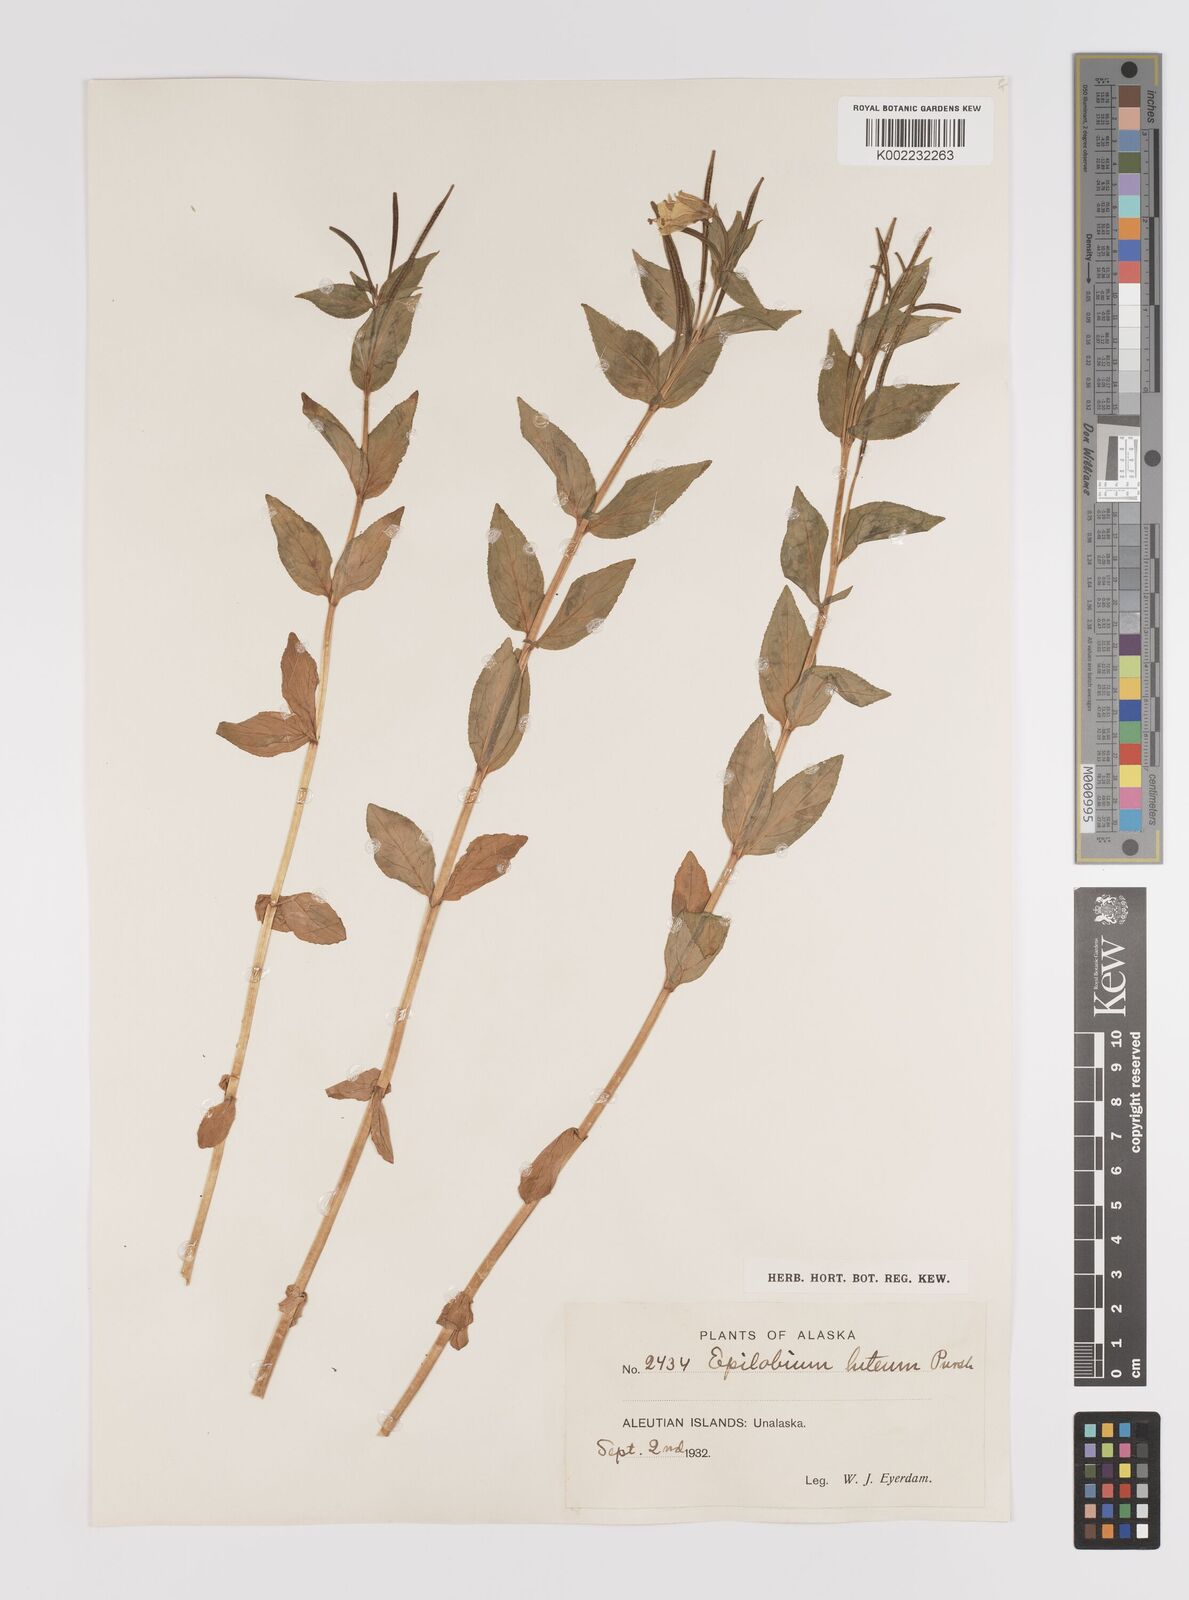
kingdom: Plantae
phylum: Tracheophyta
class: Magnoliopsida
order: Myrtales
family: Onagraceae
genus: Epilobium
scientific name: Epilobium luteum
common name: Yellow willowherb
